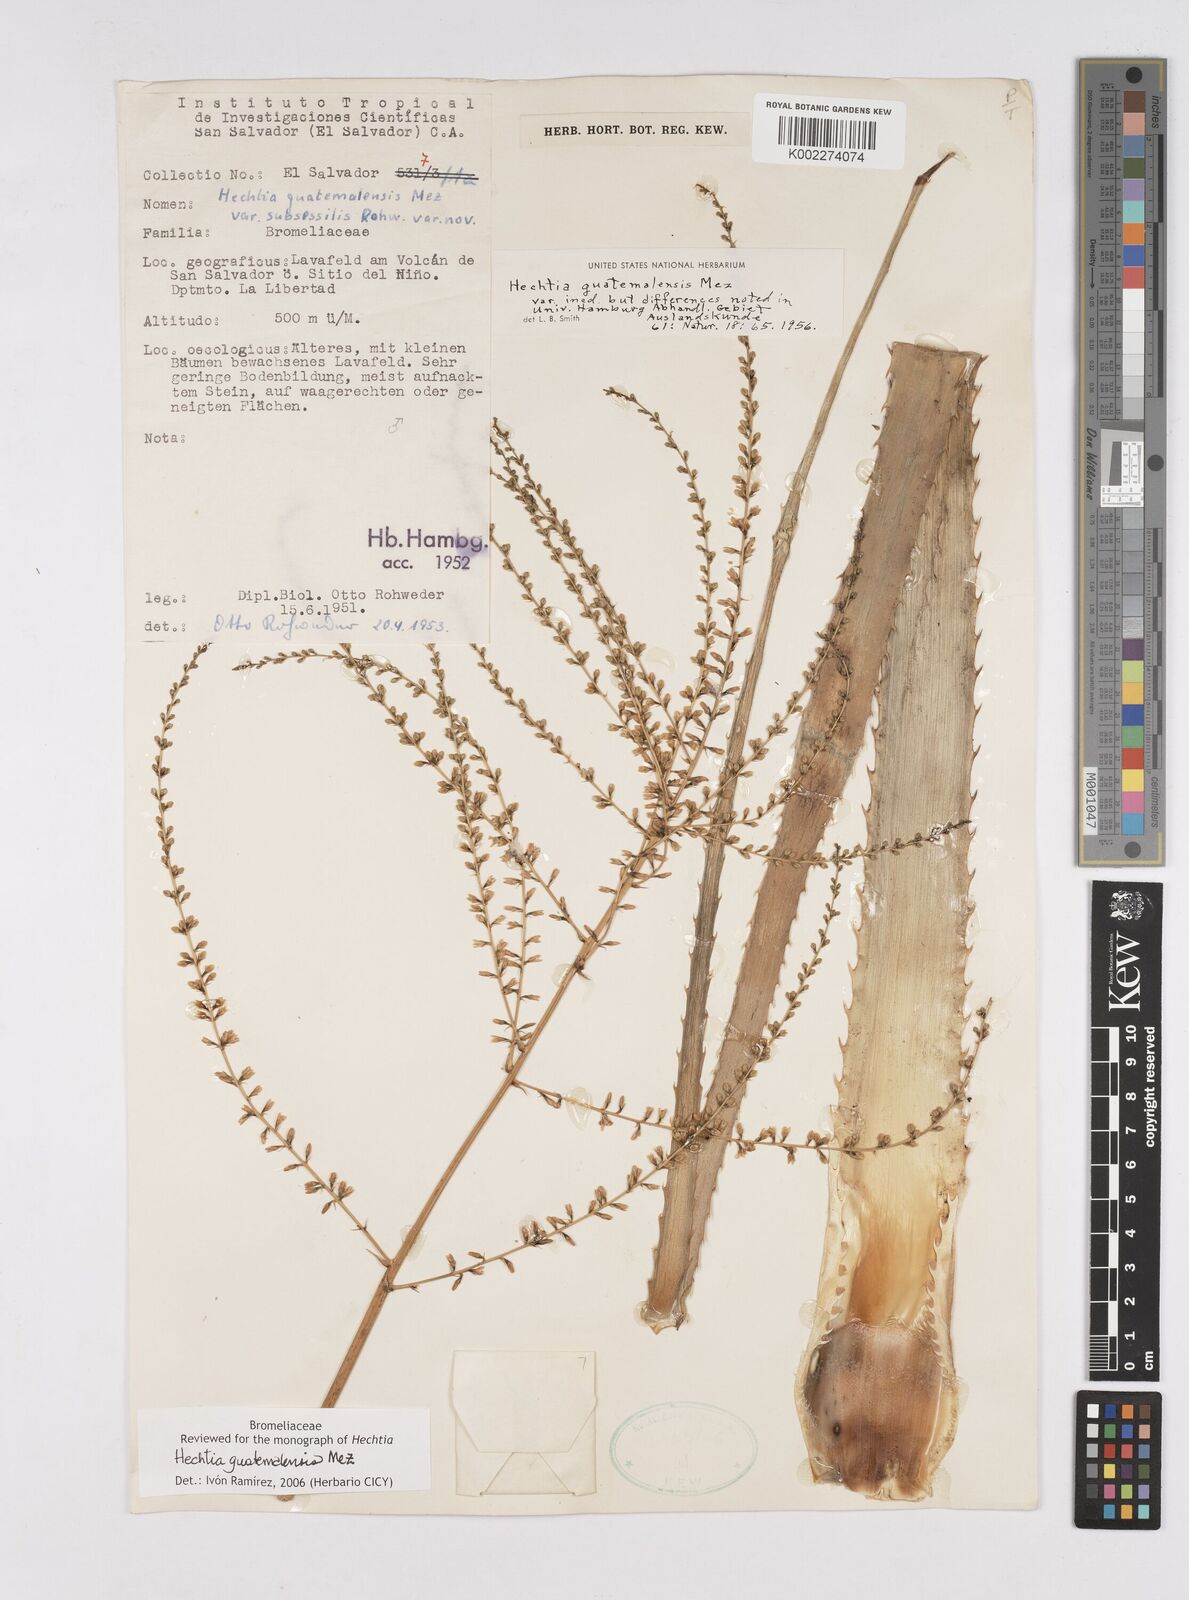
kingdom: Plantae
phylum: Tracheophyta
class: Liliopsida
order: Poales
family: Bromeliaceae
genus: Hechtia
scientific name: Hechtia guatemalensis
